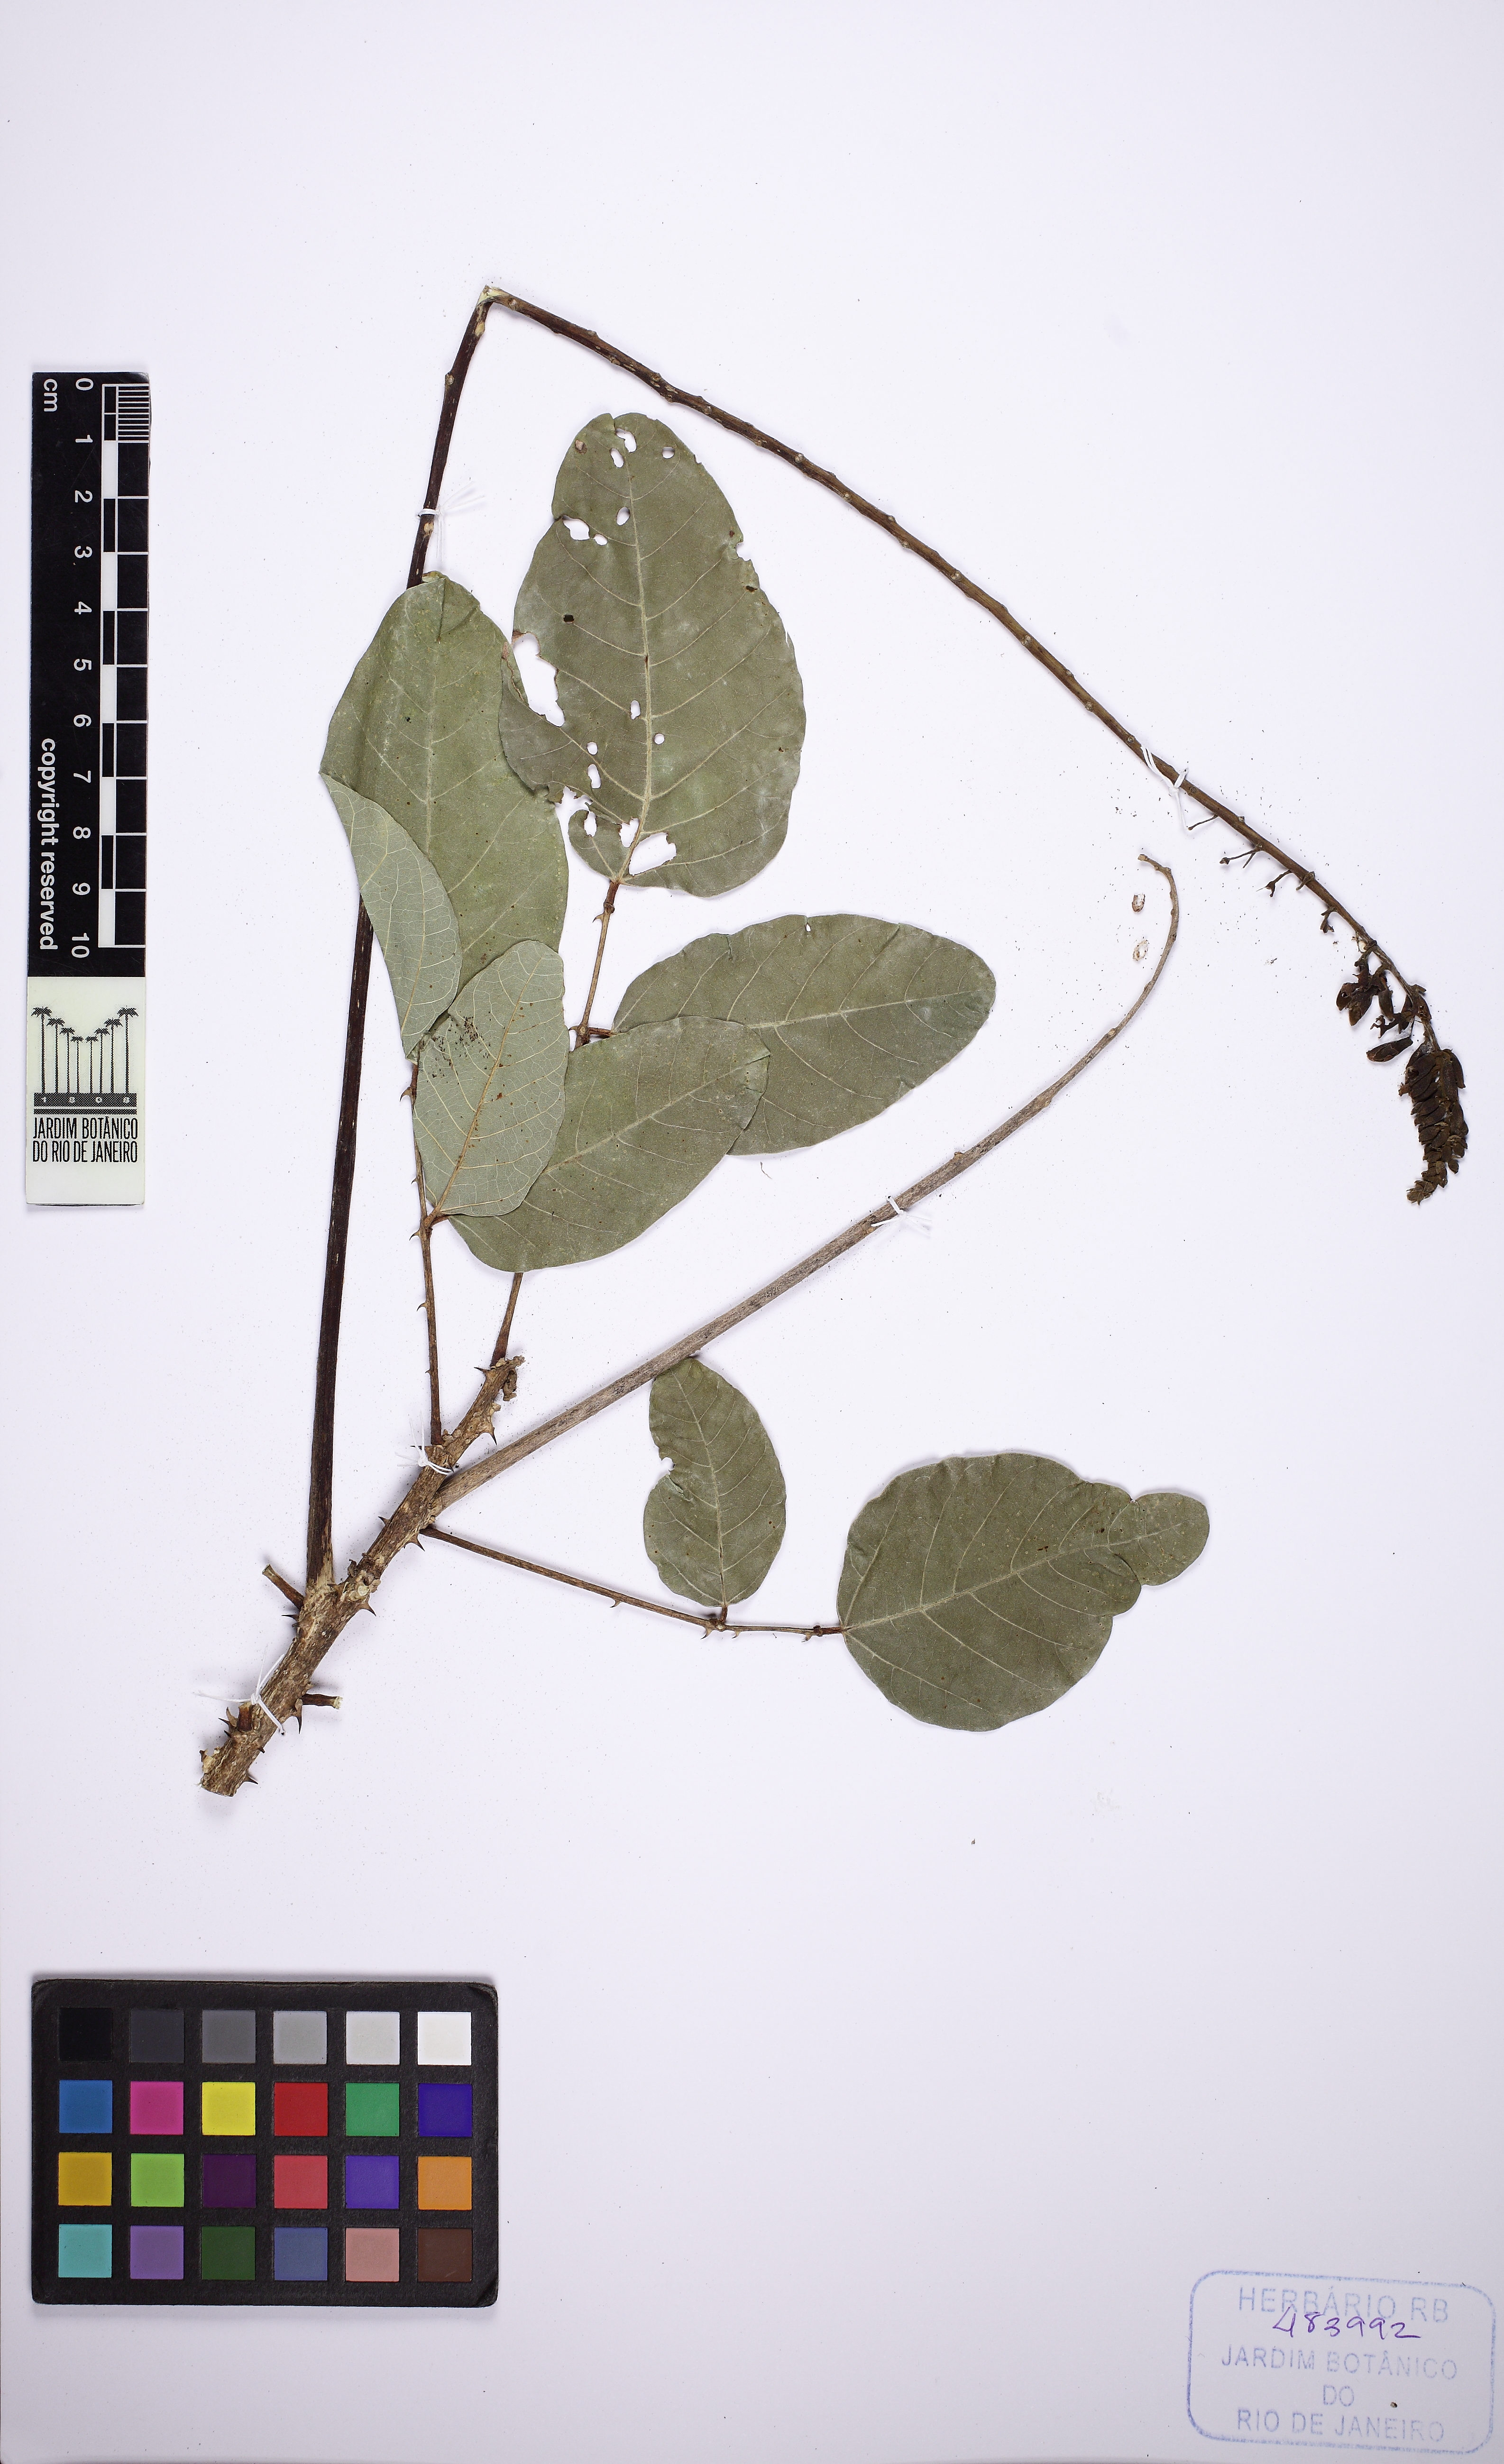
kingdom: Plantae
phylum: Tracheophyta
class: Magnoliopsida
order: Fabales
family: Fabaceae
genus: Erythrina
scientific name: Erythrina senegalensis
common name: Senegal coraltree
